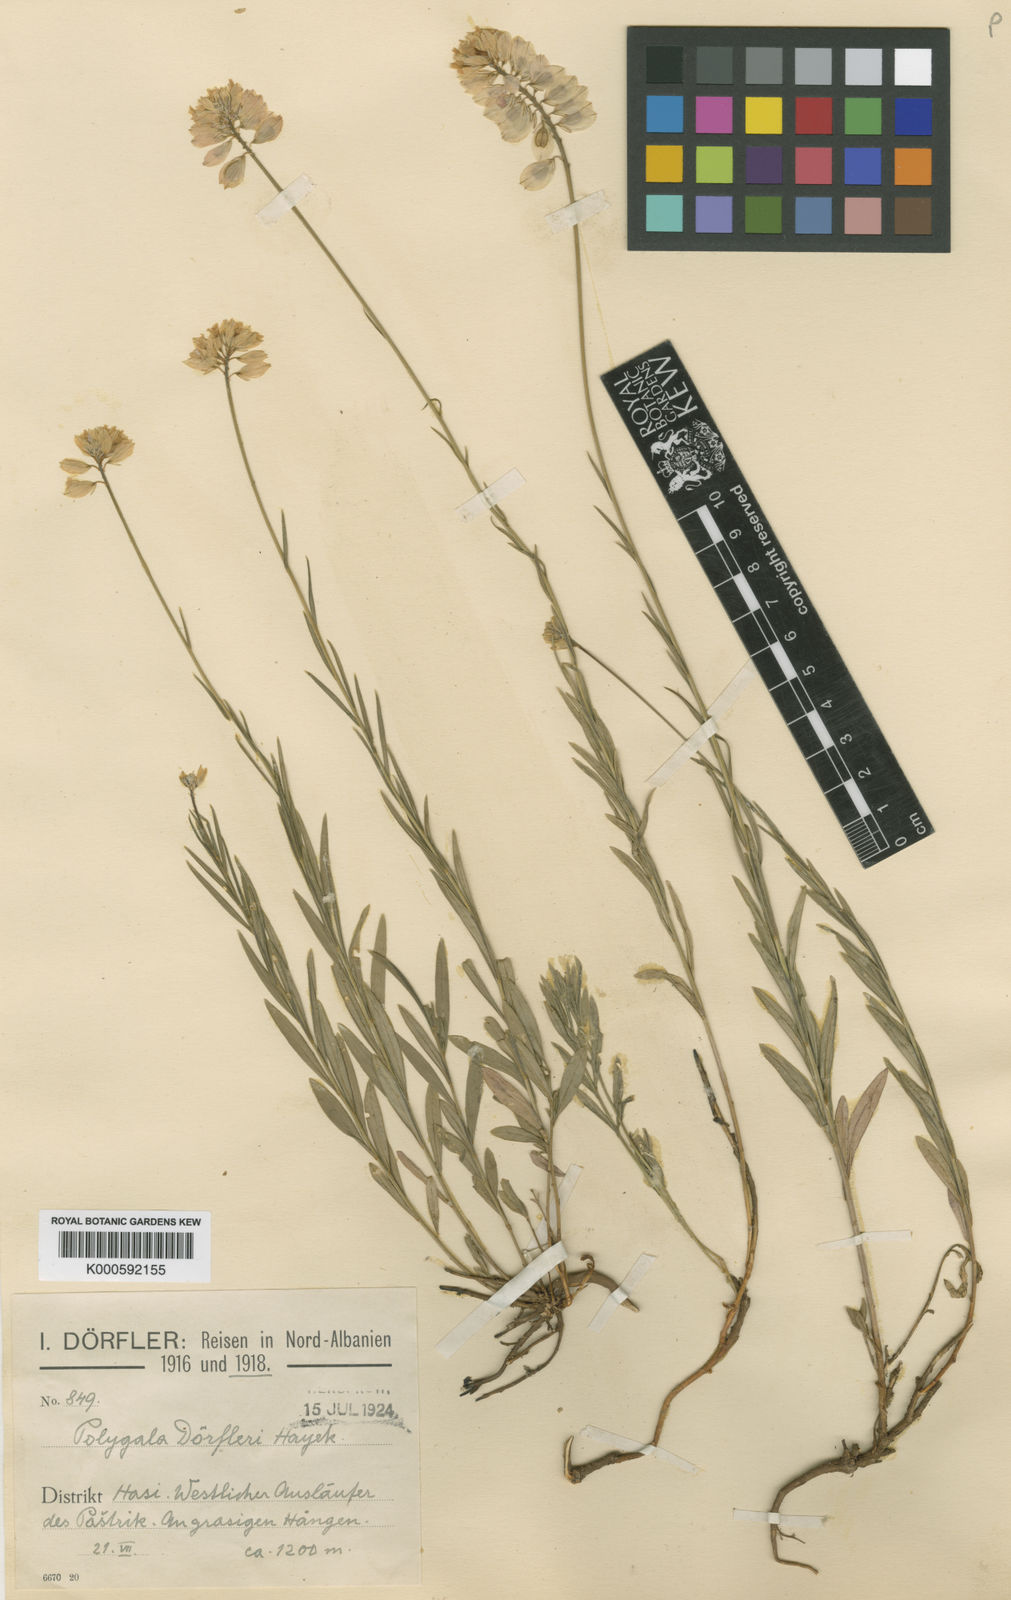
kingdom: Plantae
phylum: Tracheophyta
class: Magnoliopsida
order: Fabales
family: Polygalaceae
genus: Polygala
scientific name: Polygala doerfleri
